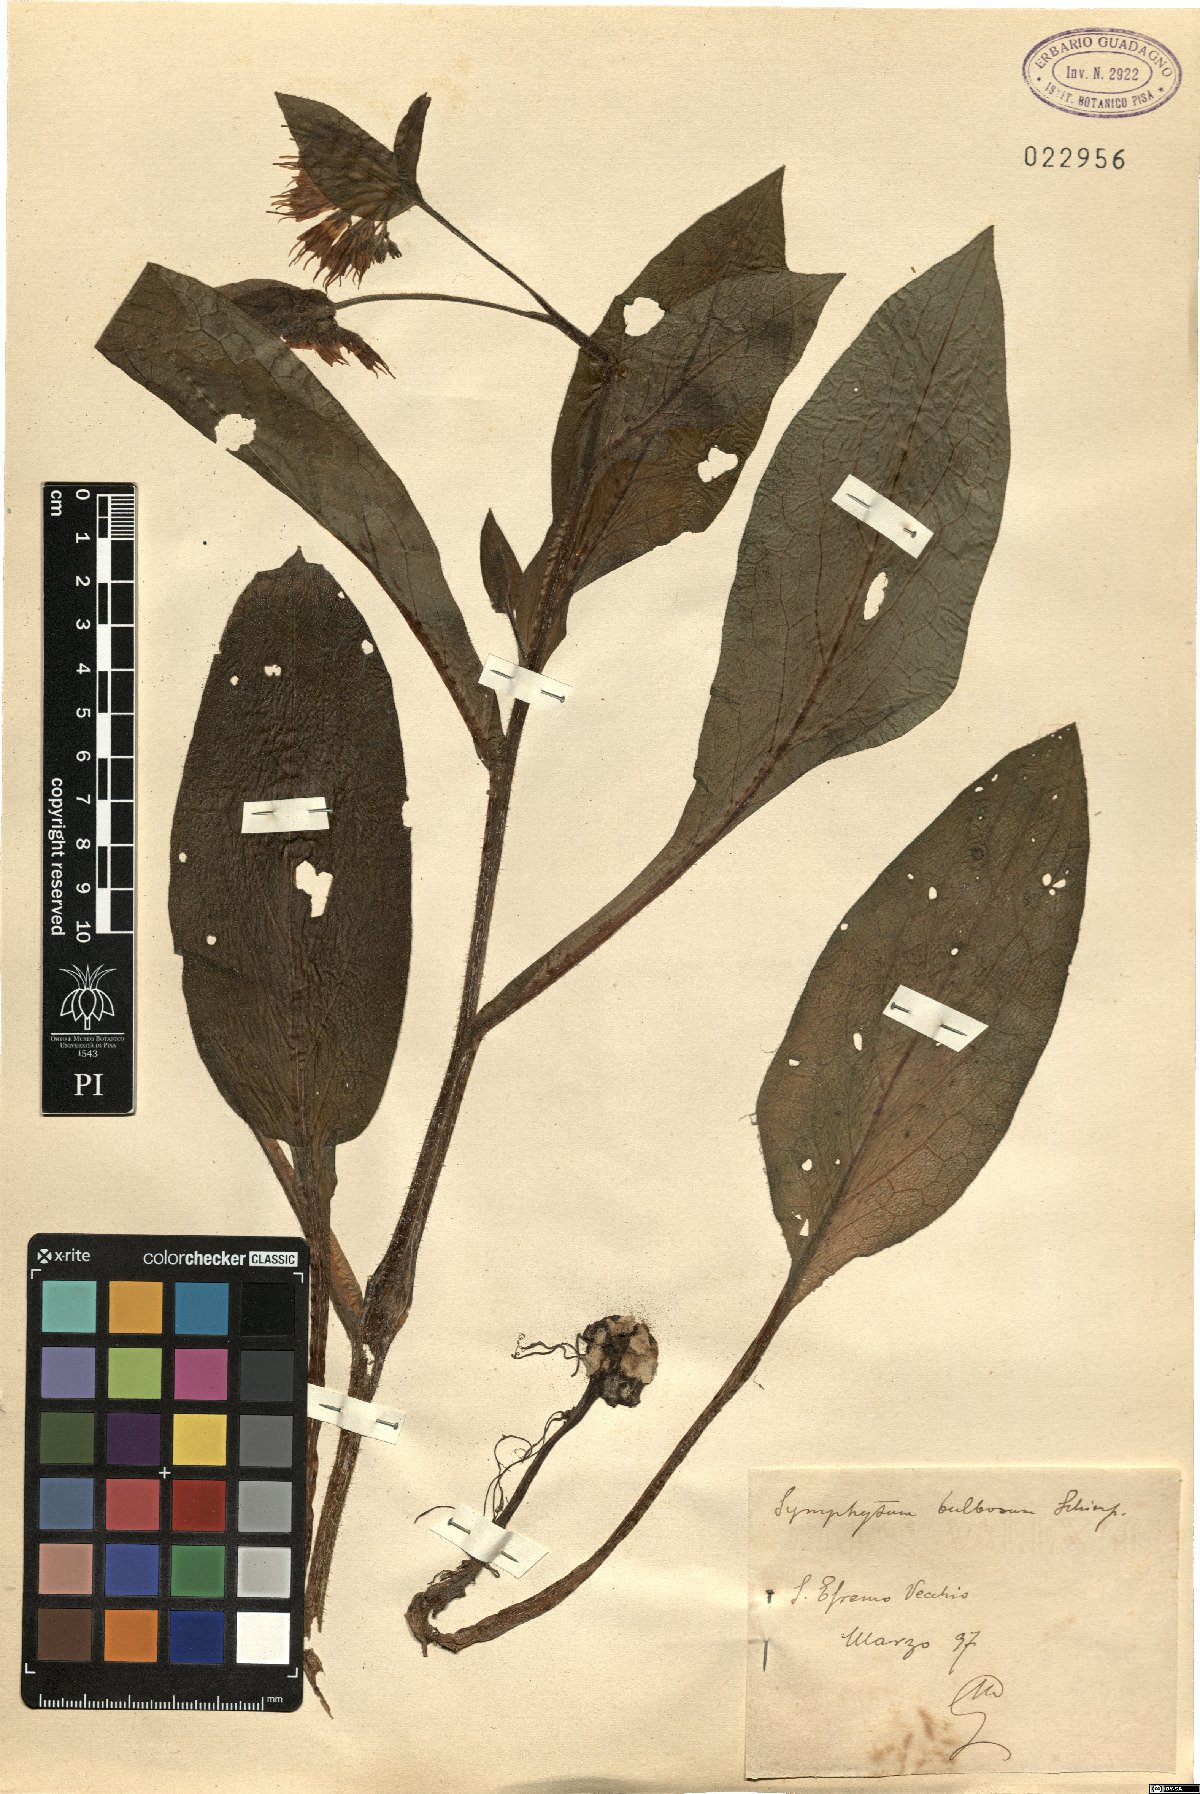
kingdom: Plantae
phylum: Tracheophyta
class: Magnoliopsida
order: Boraginales
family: Boraginaceae
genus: Symphytum
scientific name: Symphytum bulbosum
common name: Bulbous comfrey
